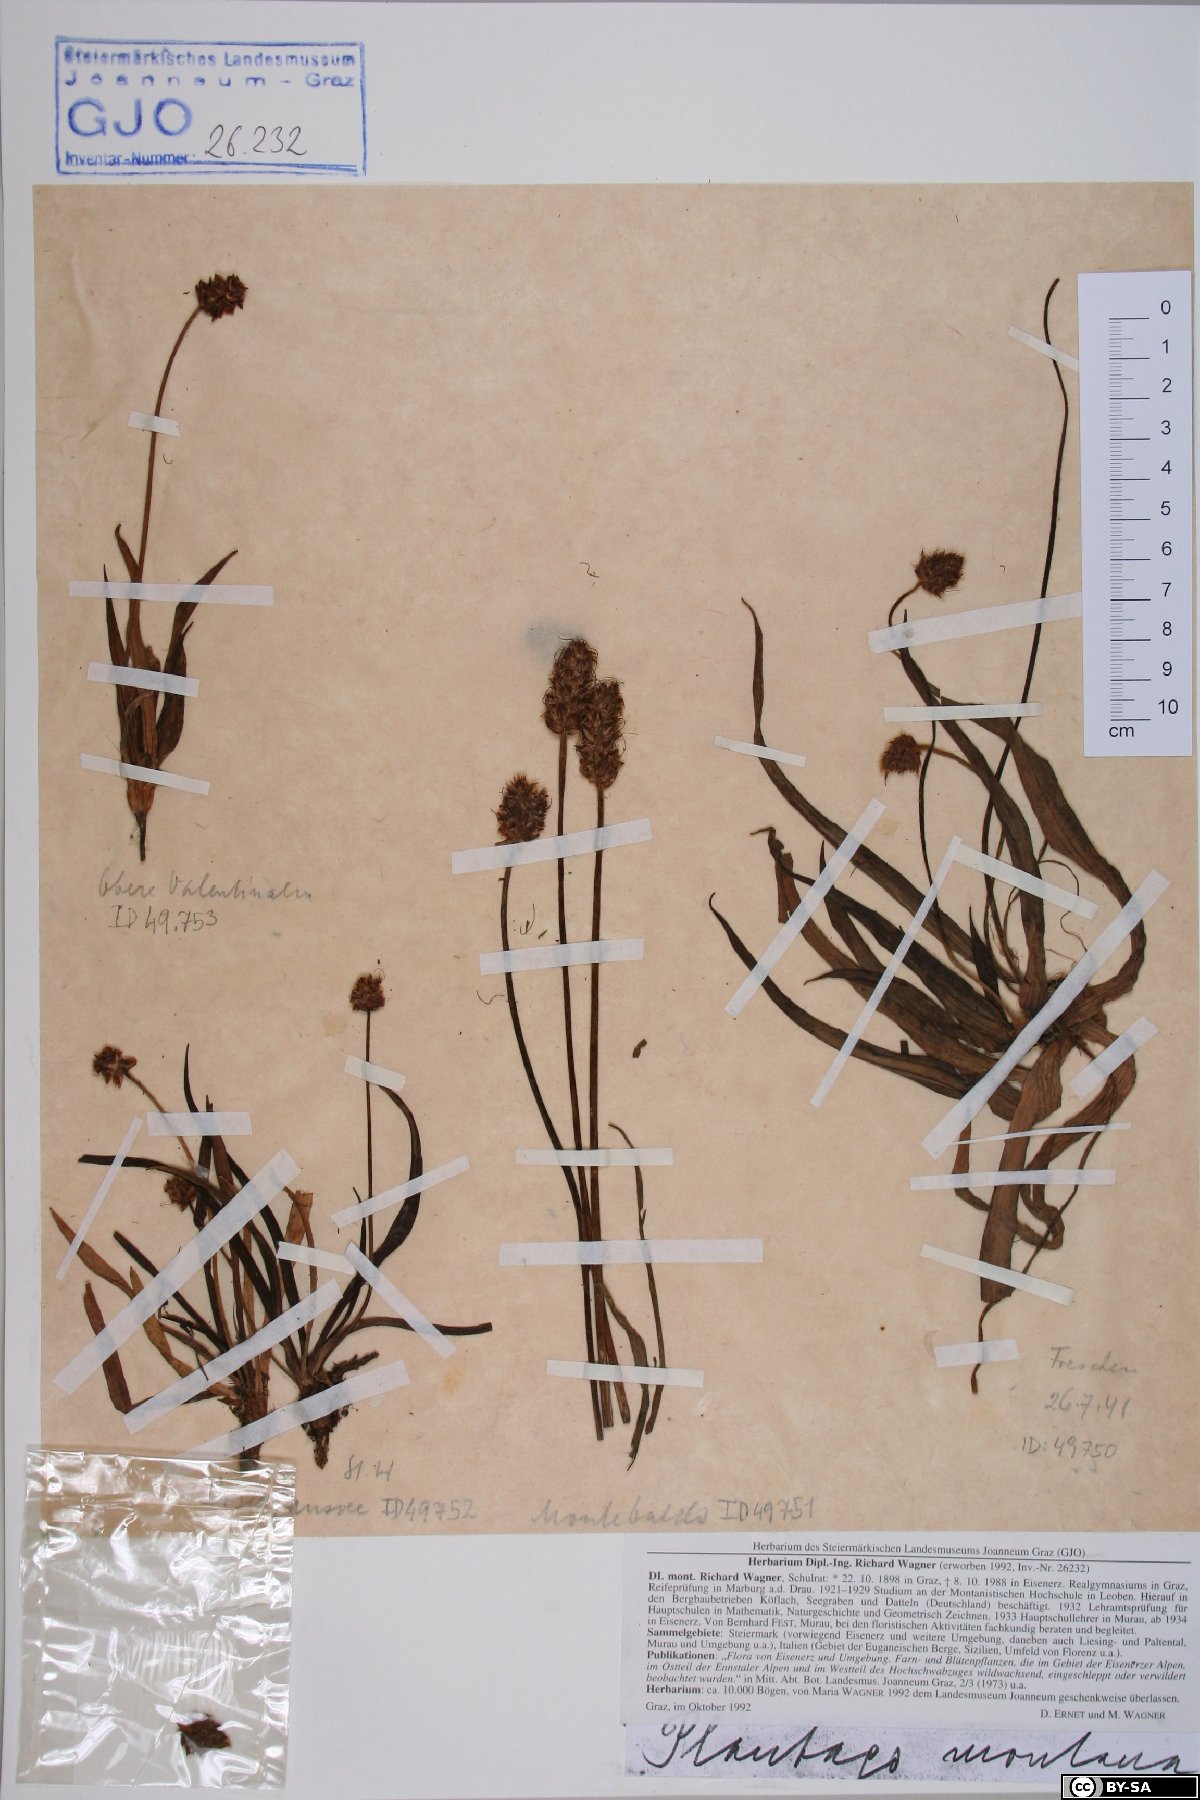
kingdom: Plantae
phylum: Tracheophyta
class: Magnoliopsida
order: Lamiales
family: Plantaginaceae
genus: Plantago
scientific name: Plantago atrata
